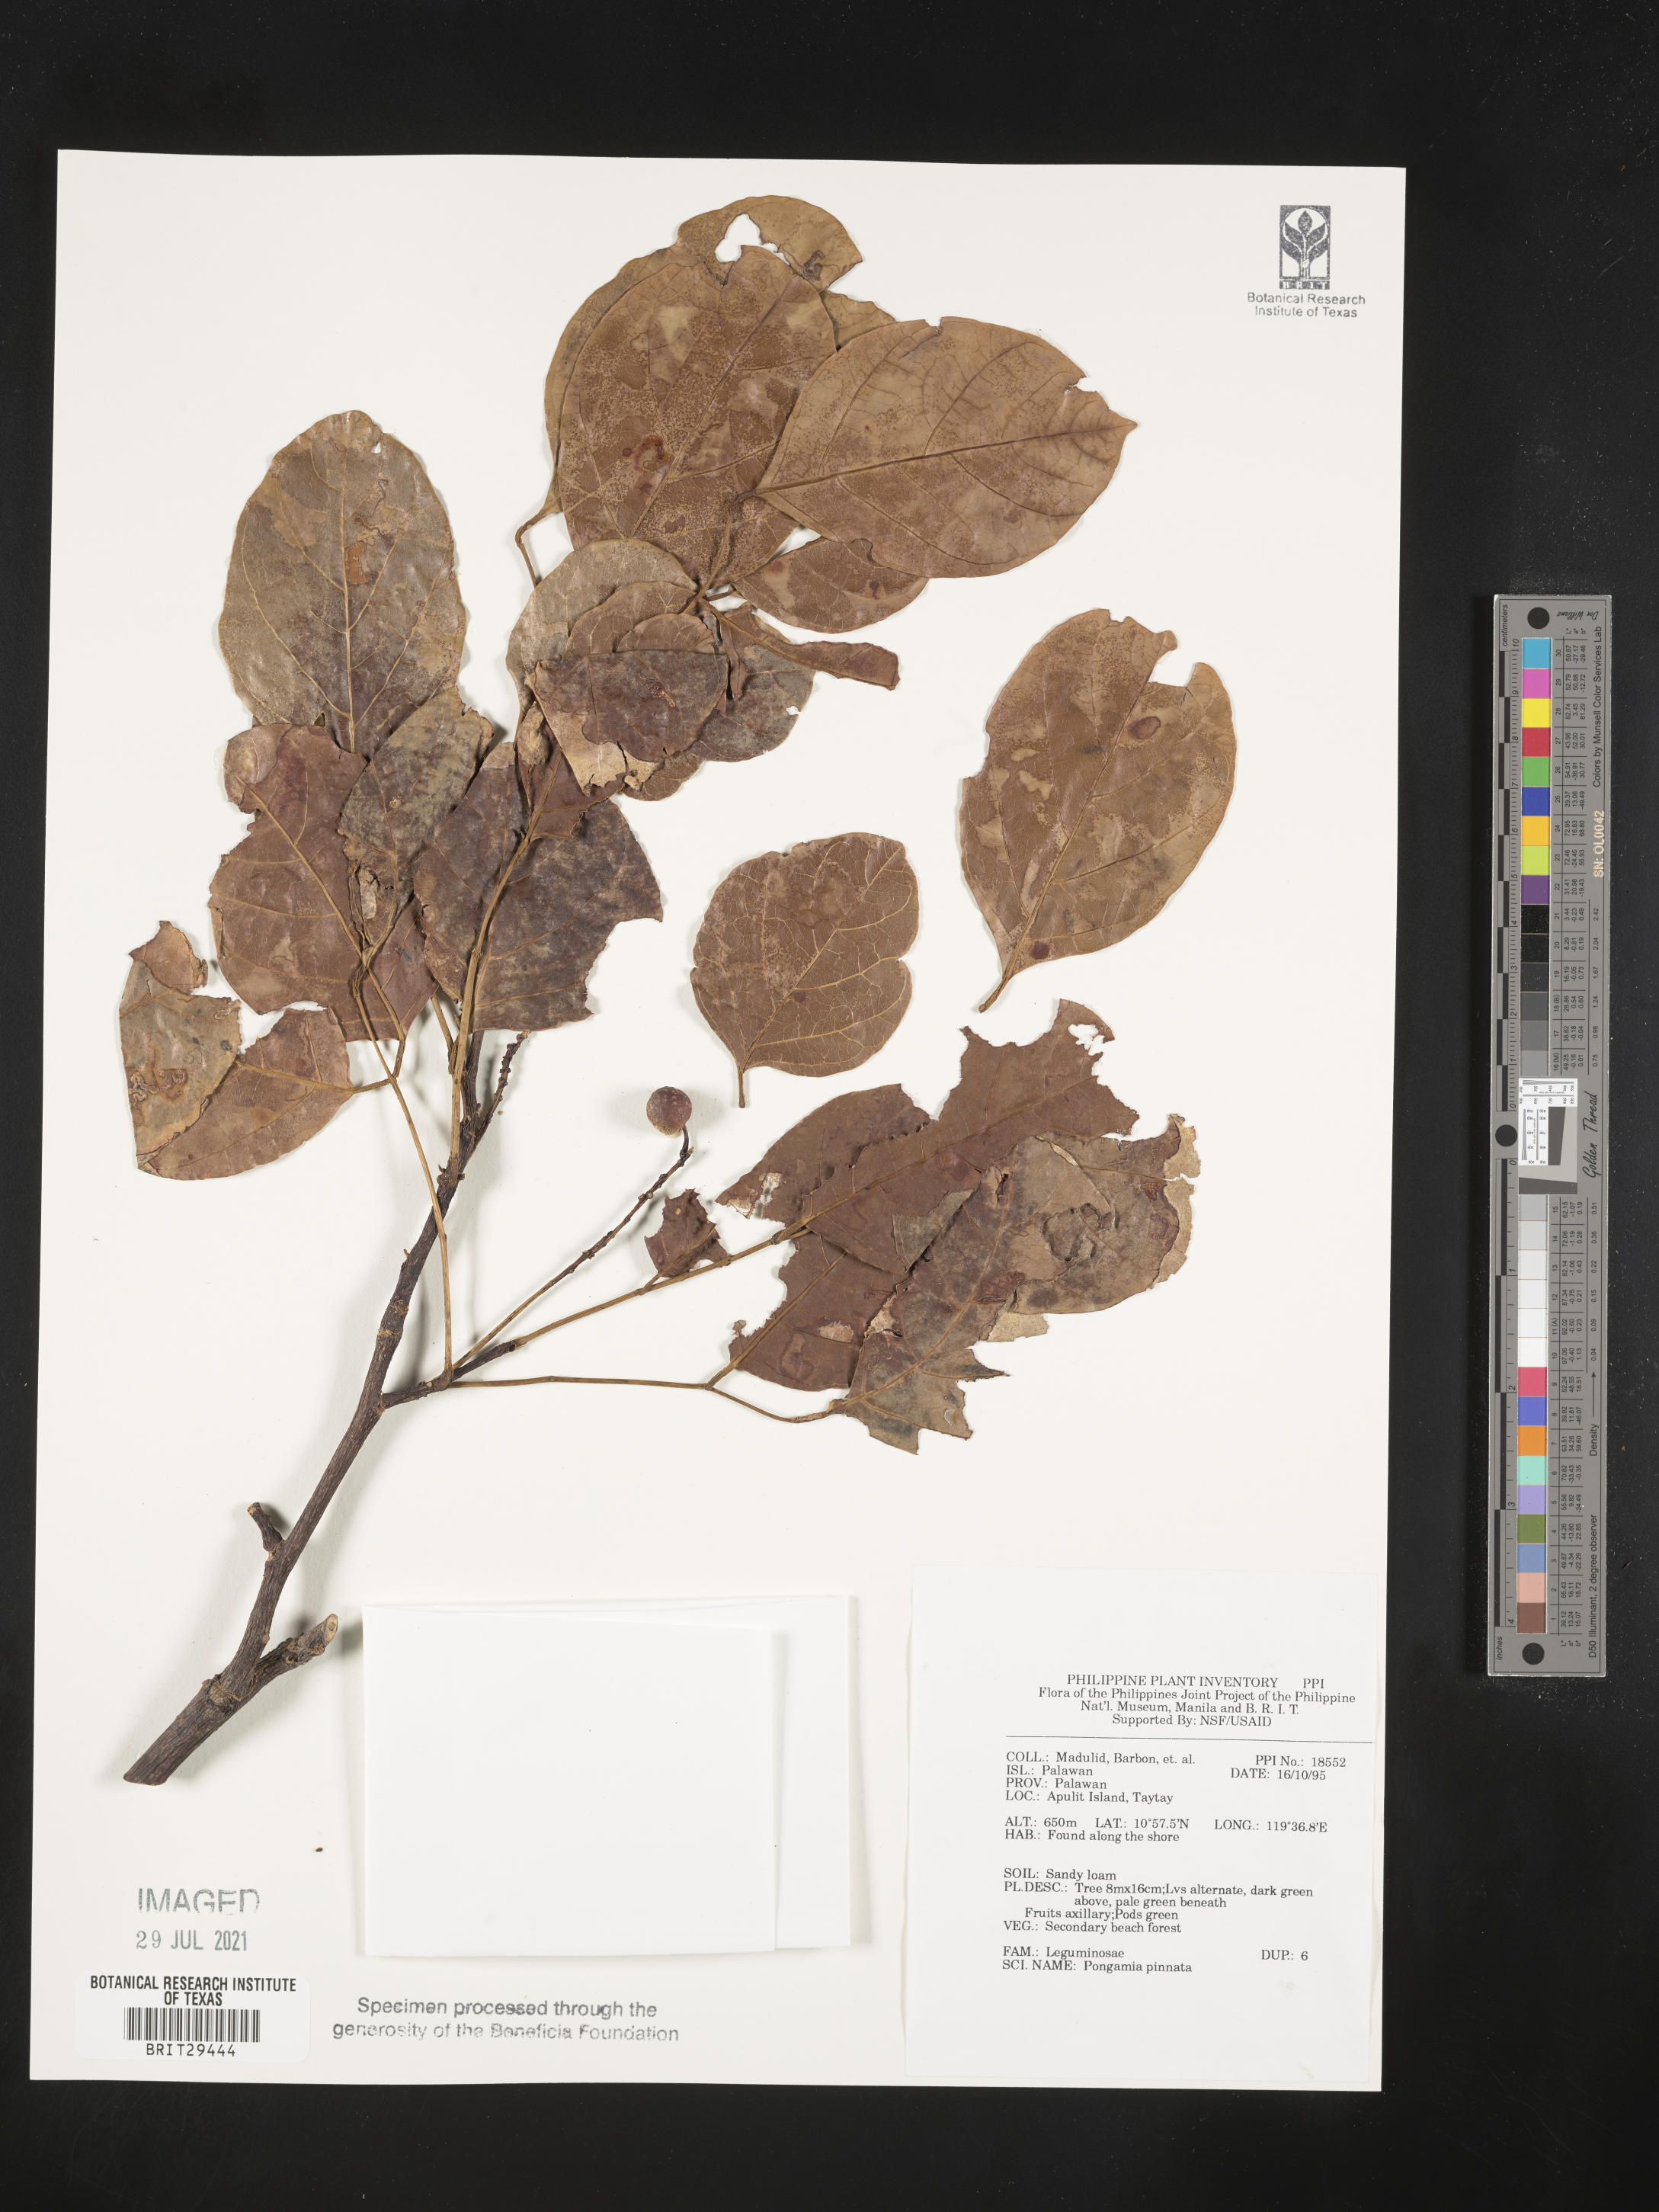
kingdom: Plantae
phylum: Tracheophyta
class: Magnoliopsida
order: Fabales
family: Fabaceae
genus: Pongamia
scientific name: Pongamia pinnata
